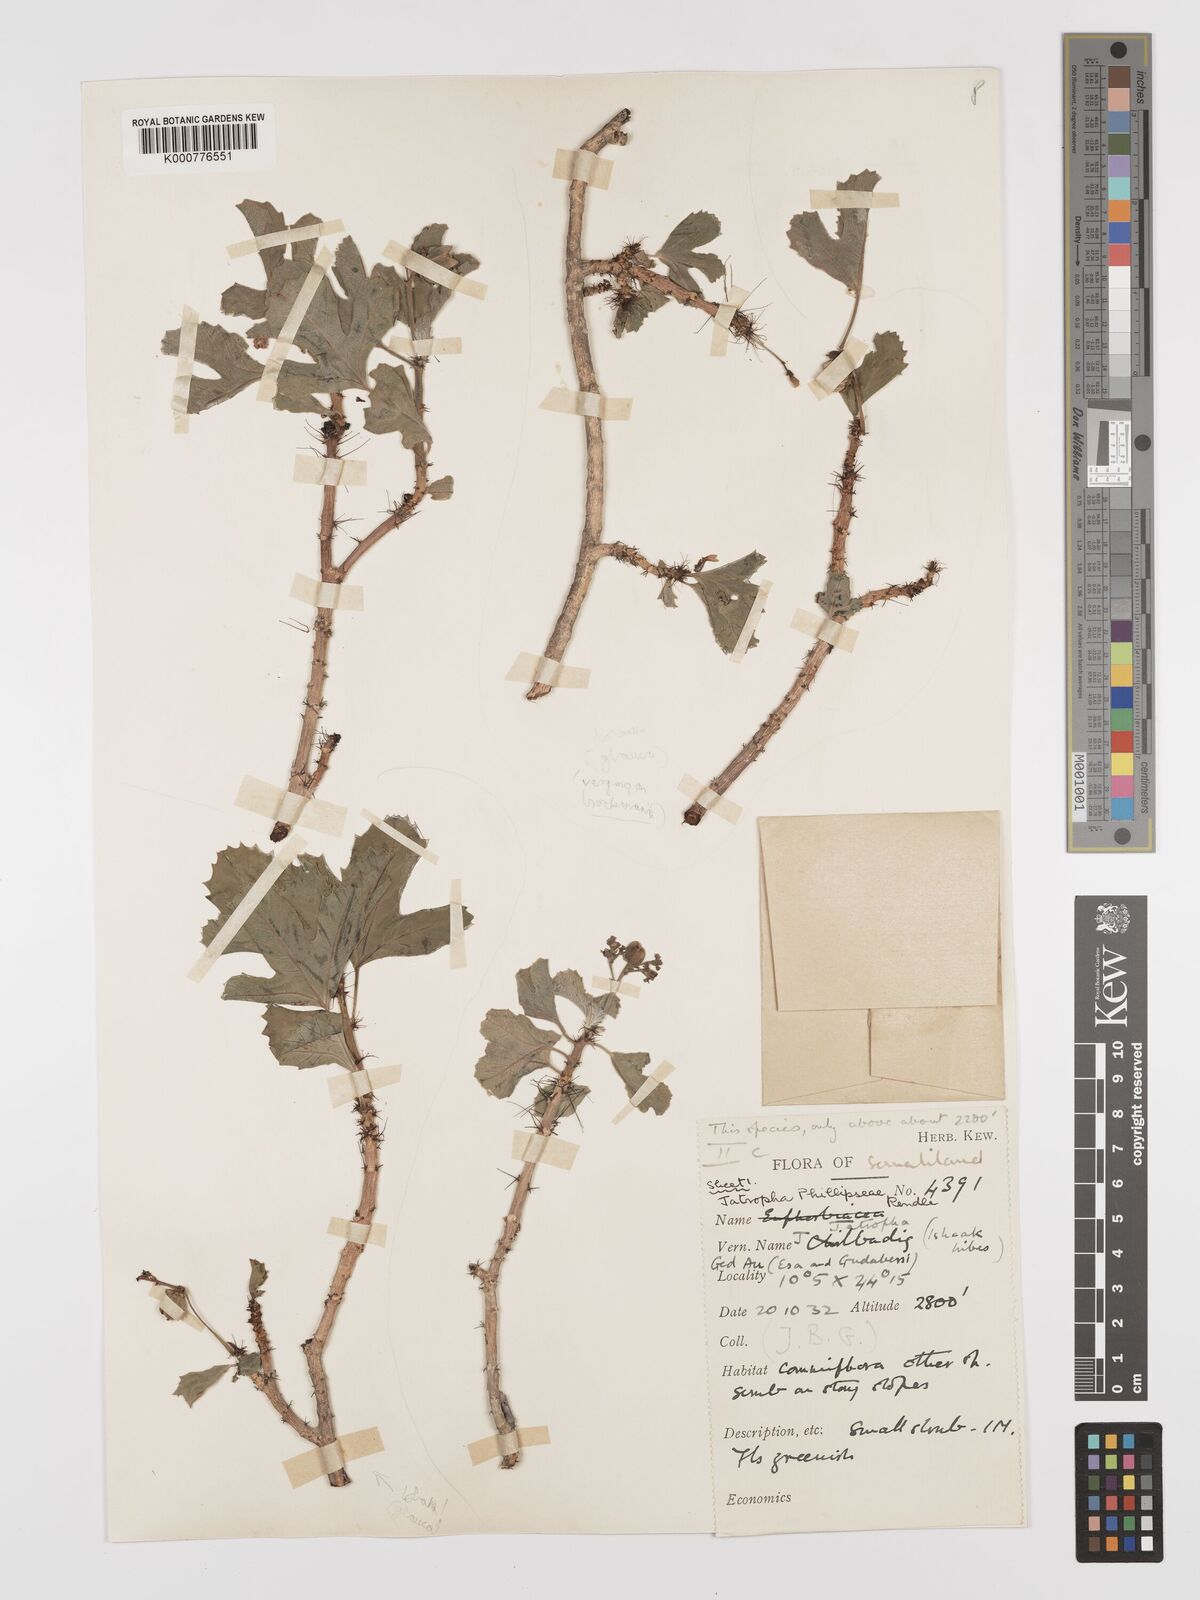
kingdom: Plantae
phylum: Tracheophyta
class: Magnoliopsida
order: Malpighiales
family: Euphorbiaceae
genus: Jatropha
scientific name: Jatropha phillipseae
